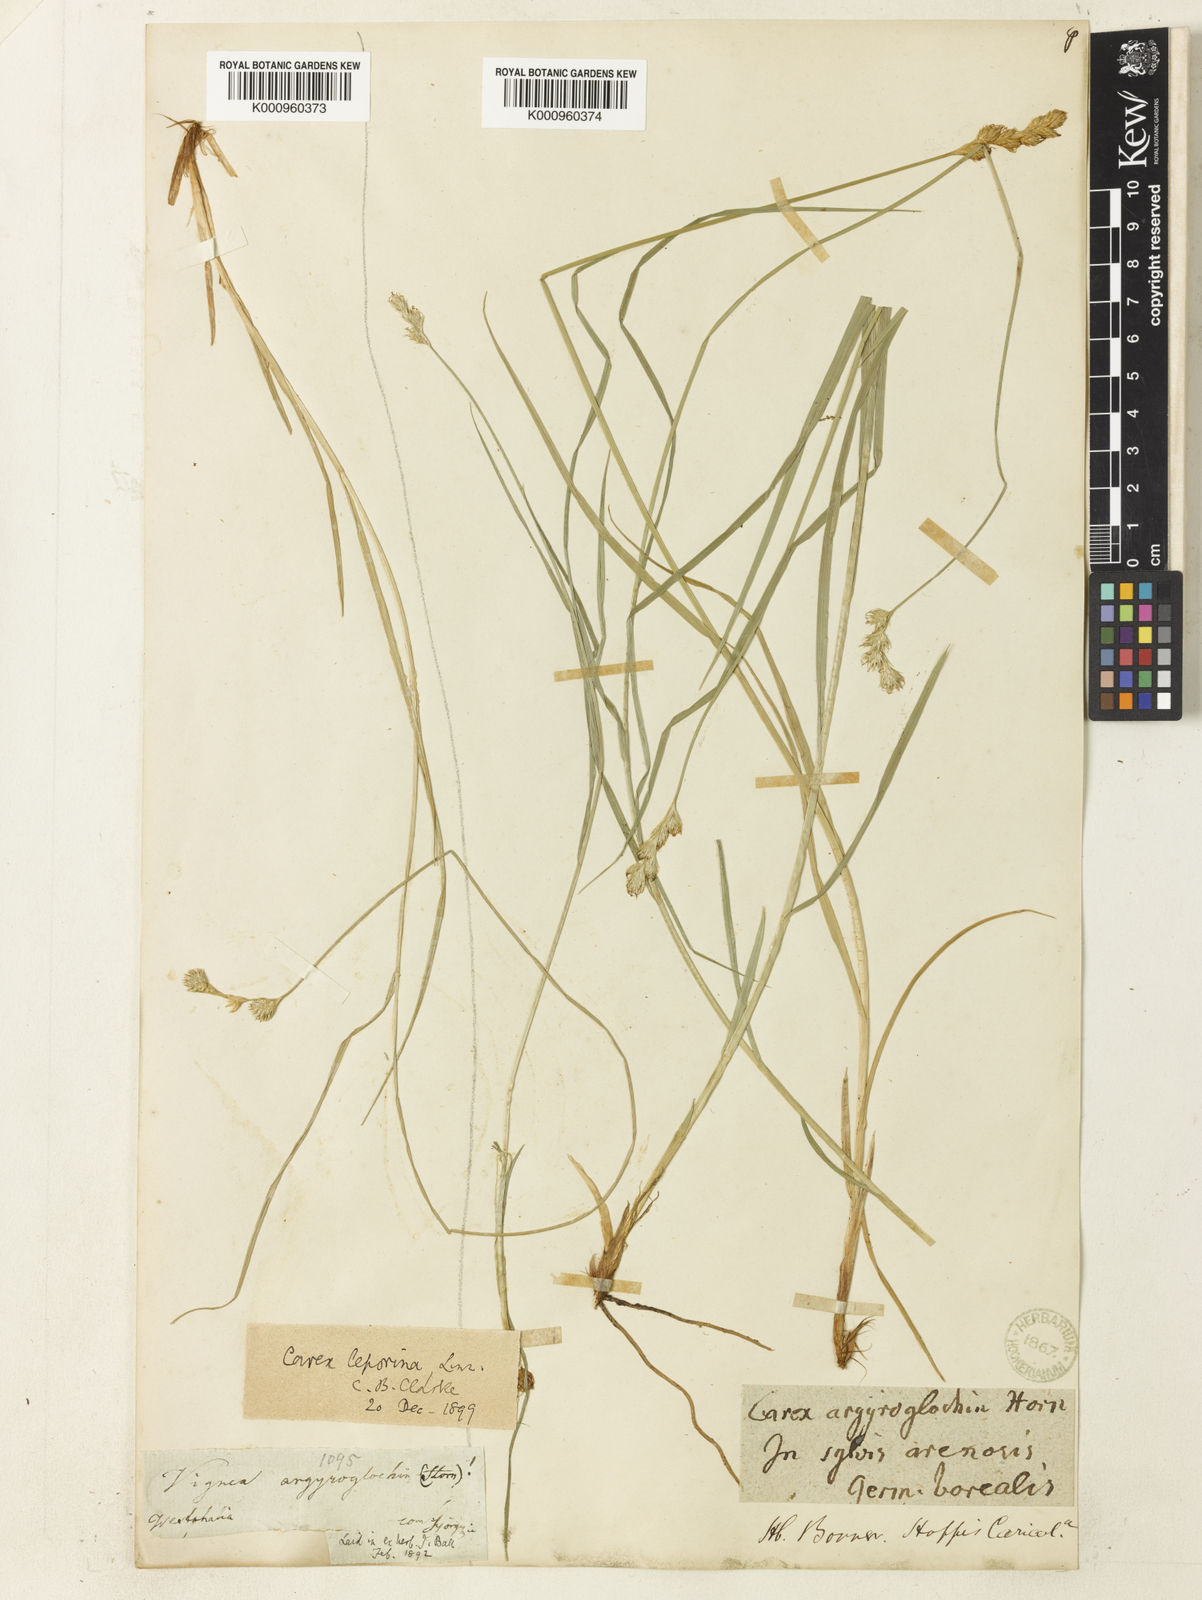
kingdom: Plantae
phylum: Tracheophyta
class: Liliopsida
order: Poales
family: Cyperaceae
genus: Carex
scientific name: Carex leporina
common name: Oval sedge
